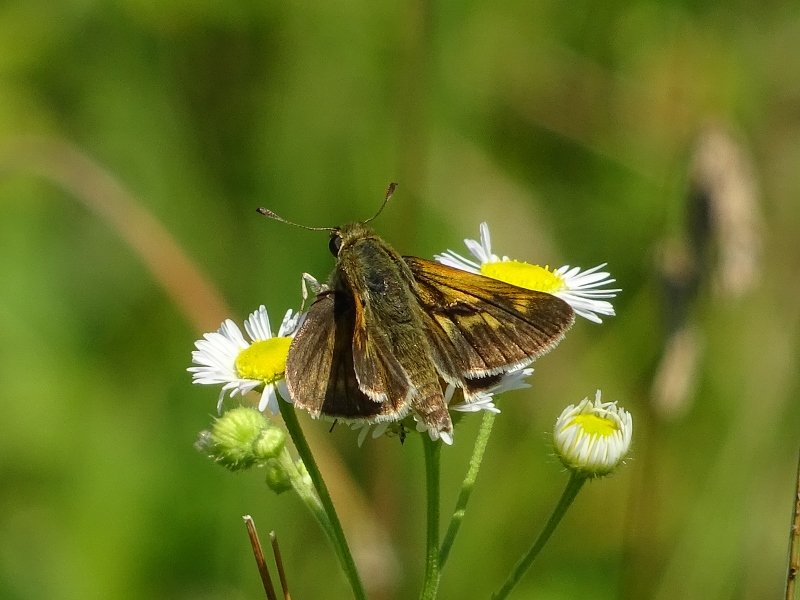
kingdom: Animalia
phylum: Arthropoda
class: Insecta
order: Lepidoptera
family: Hesperiidae
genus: Polites
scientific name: Polites
